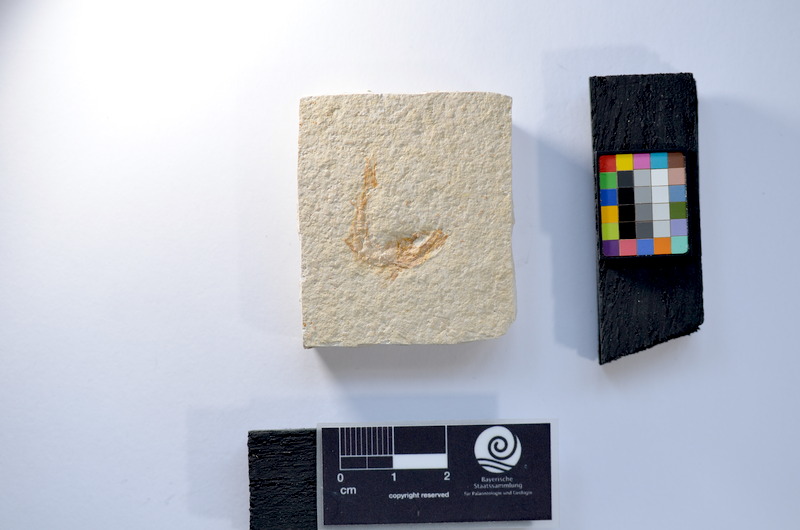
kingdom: Animalia
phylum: Chordata
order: Salmoniformes
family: Orthogonikleithridae
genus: Leptolepides
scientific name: Leptolepides
